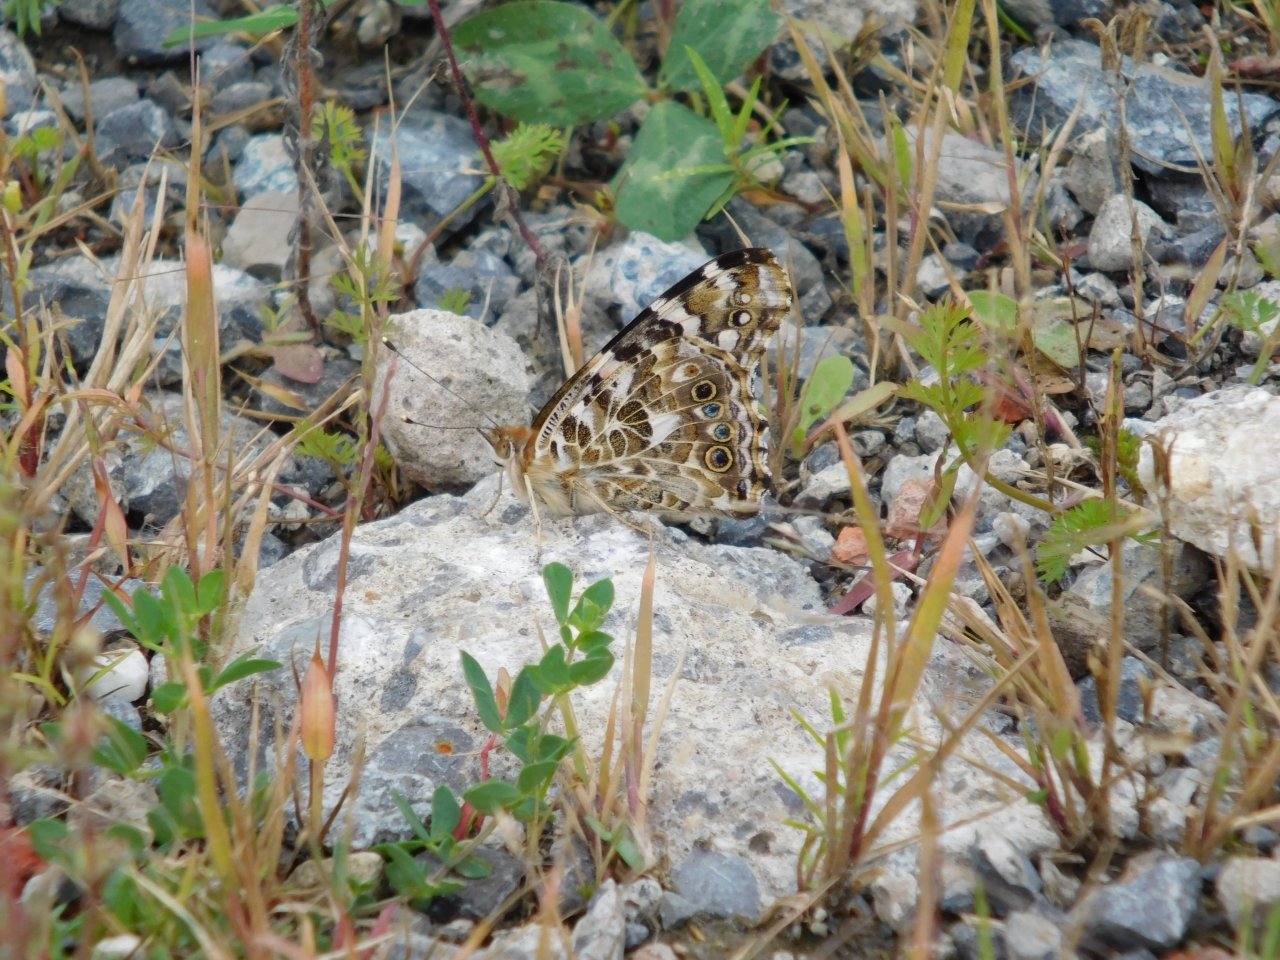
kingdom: Animalia
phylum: Arthropoda
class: Insecta
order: Lepidoptera
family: Nymphalidae
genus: Vanessa
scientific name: Vanessa cardui
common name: Painted Lady
